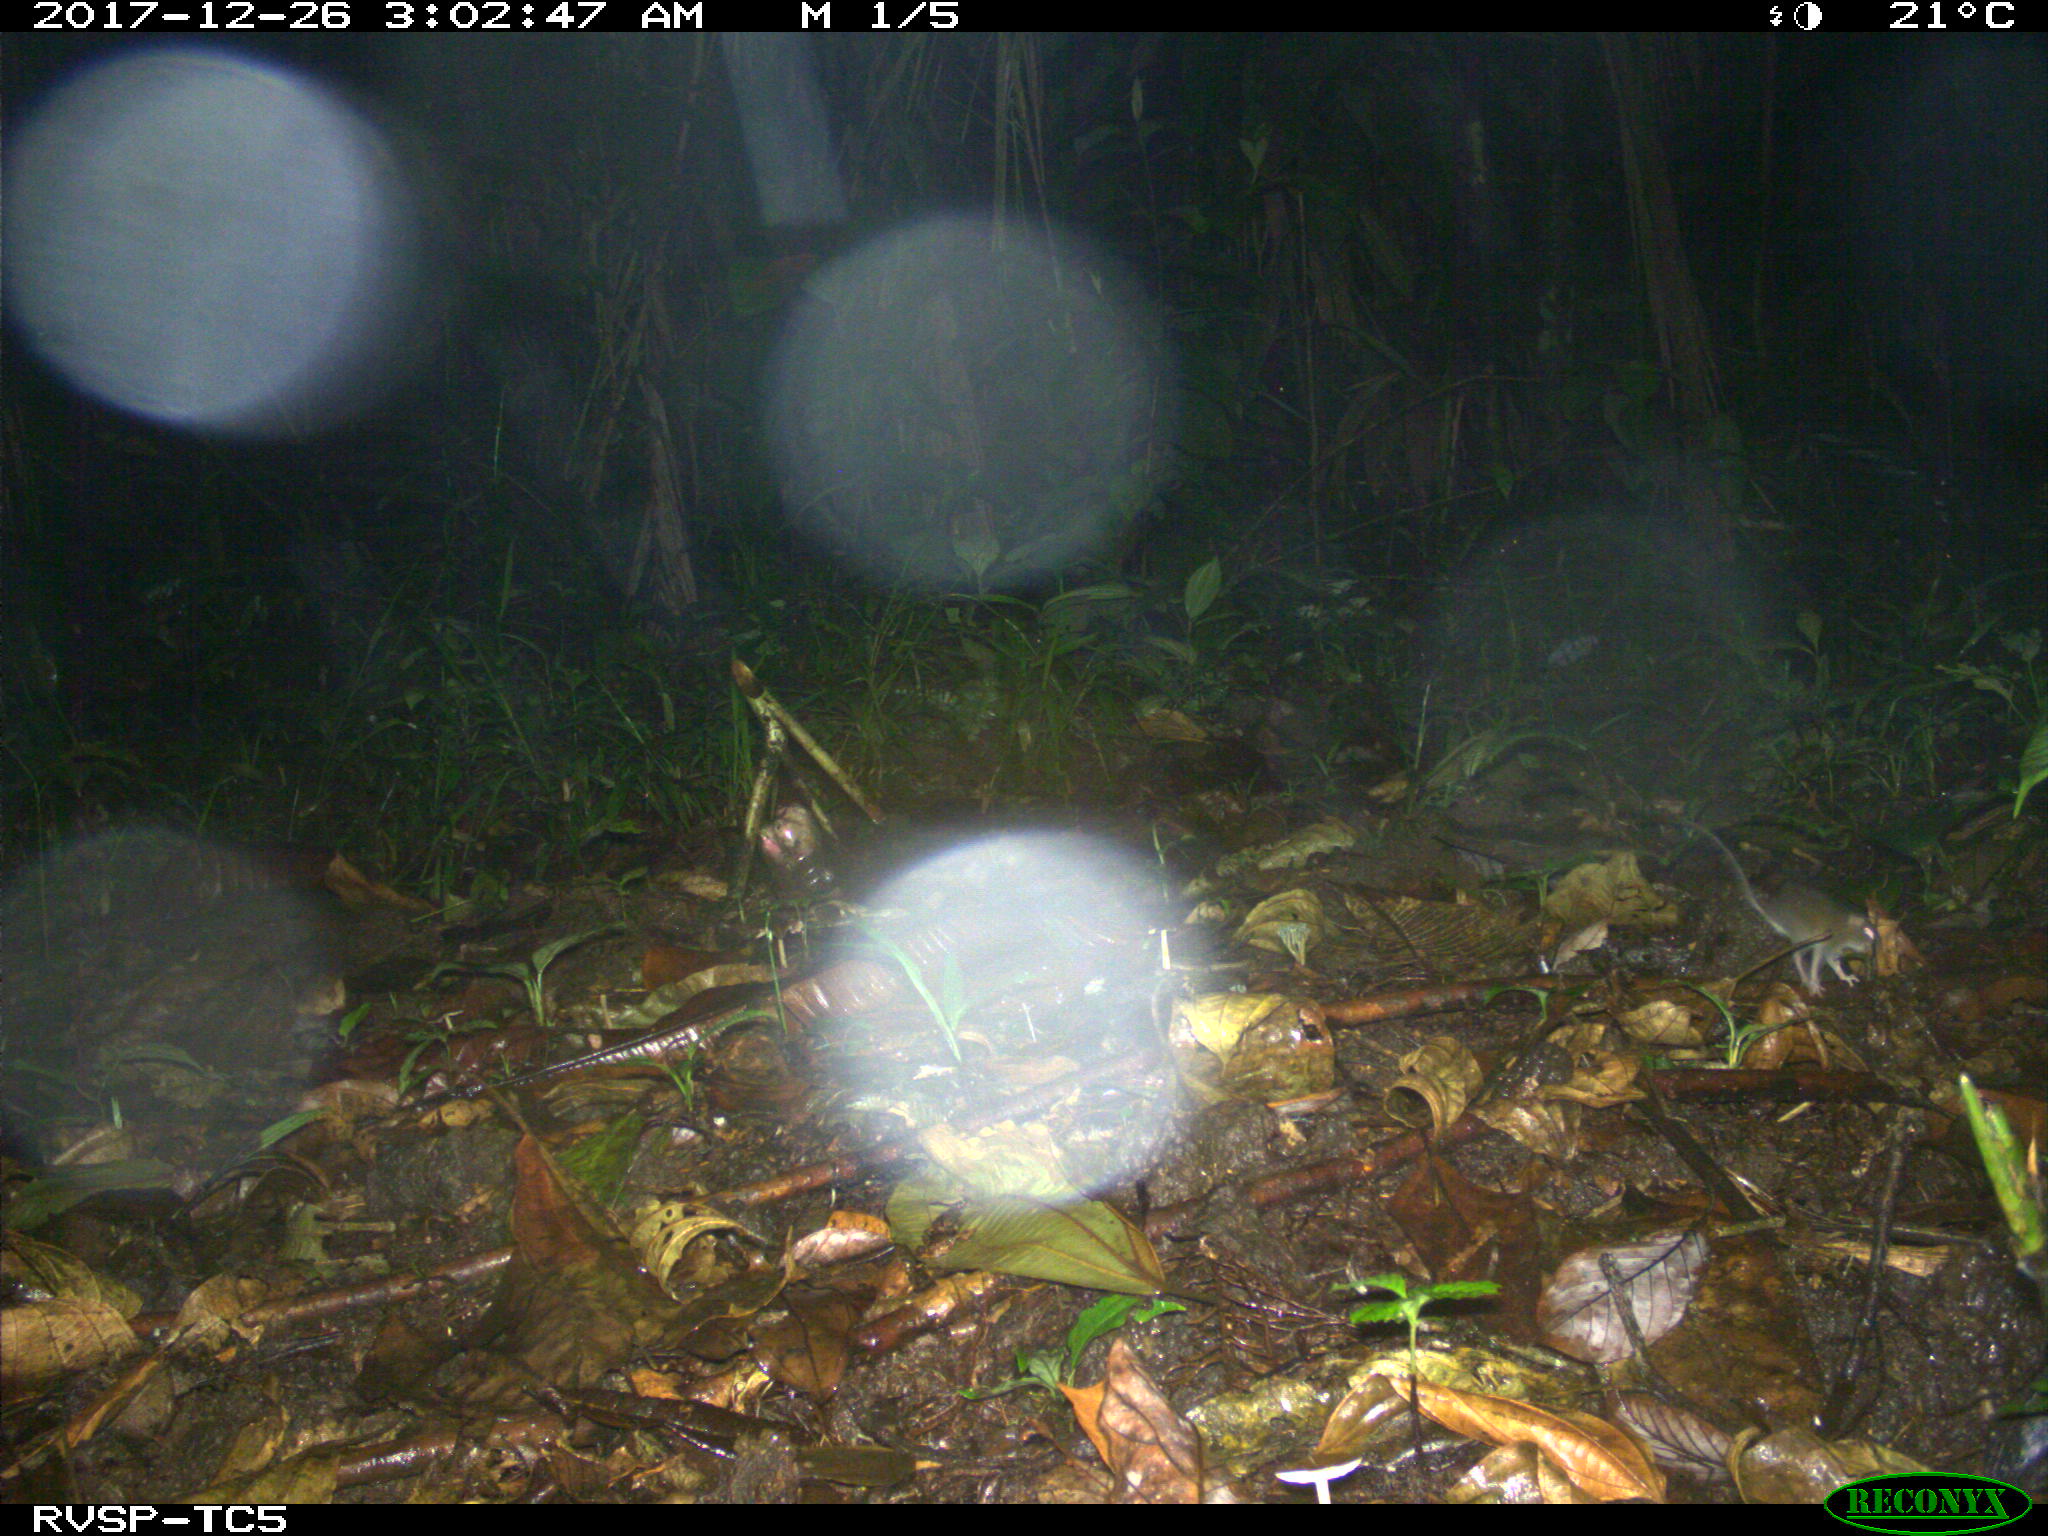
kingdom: Animalia
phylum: Chordata
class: Mammalia
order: Rodentia
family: Echimyidae
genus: Proechimys
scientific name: Proechimys
